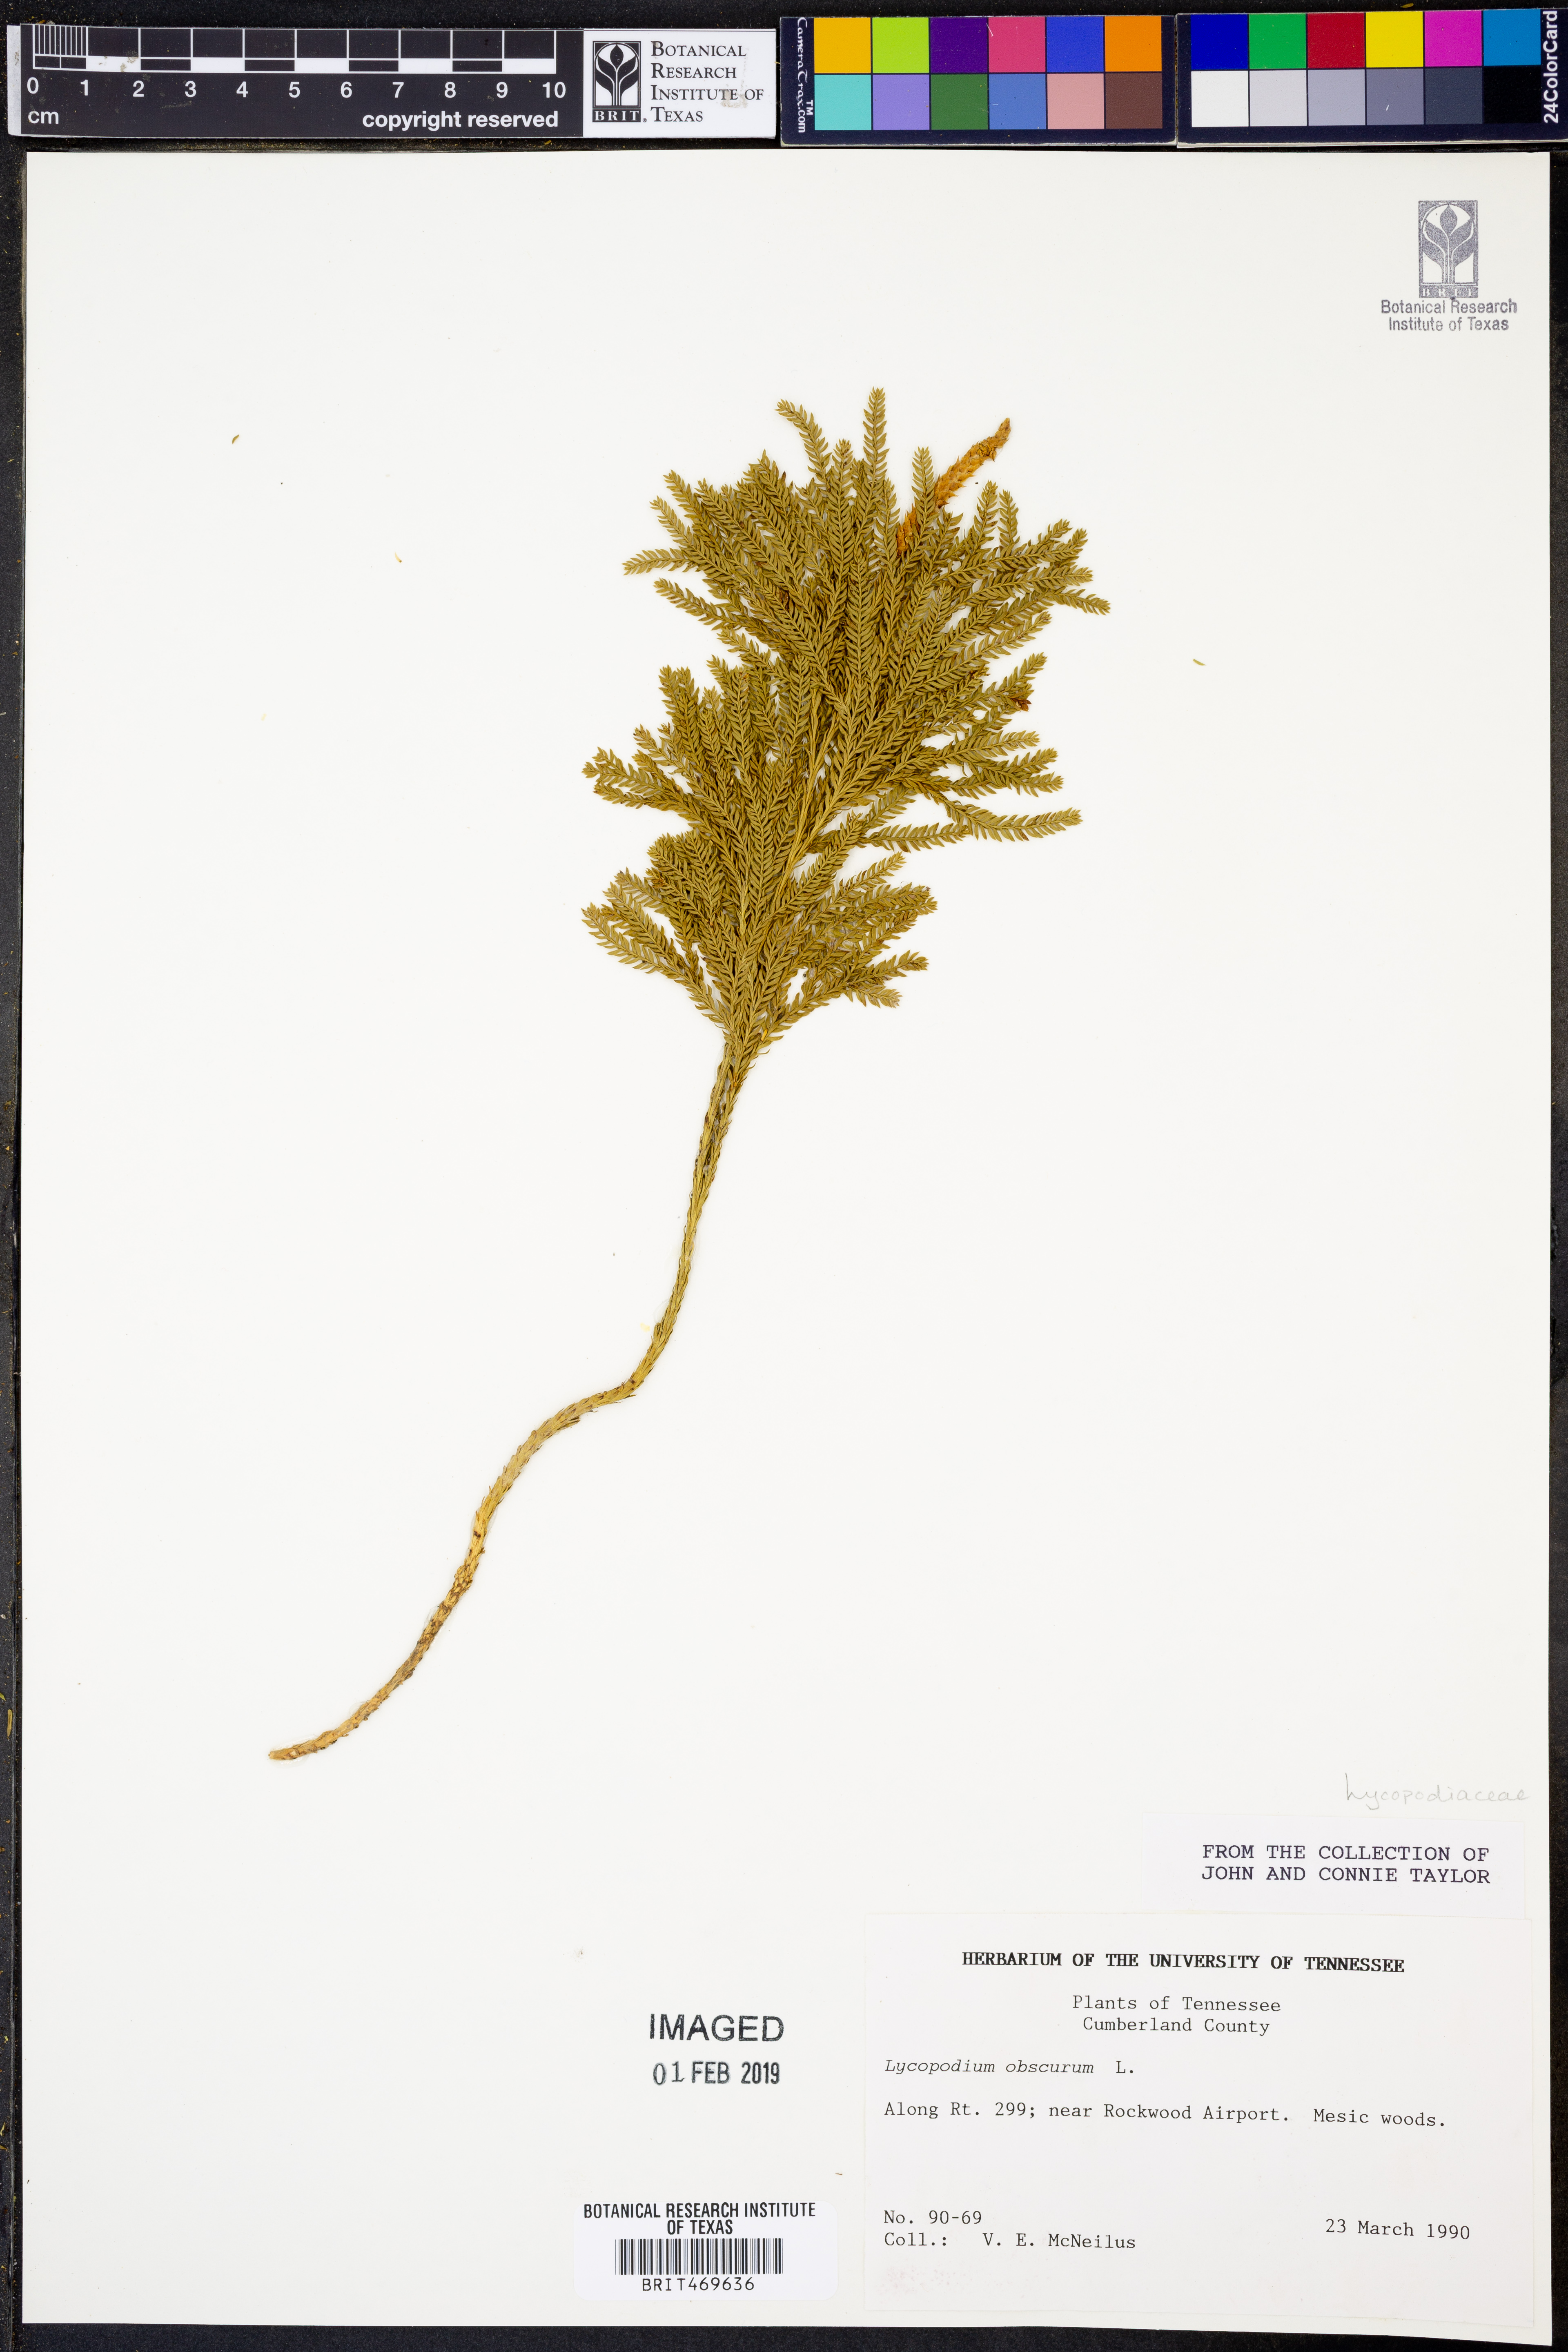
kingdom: Plantae
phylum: Tracheophyta
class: Lycopodiopsida
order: Lycopodiales
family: Lycopodiaceae
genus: Dendrolycopodium
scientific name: Dendrolycopodium obscurum
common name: Common ground-pine
